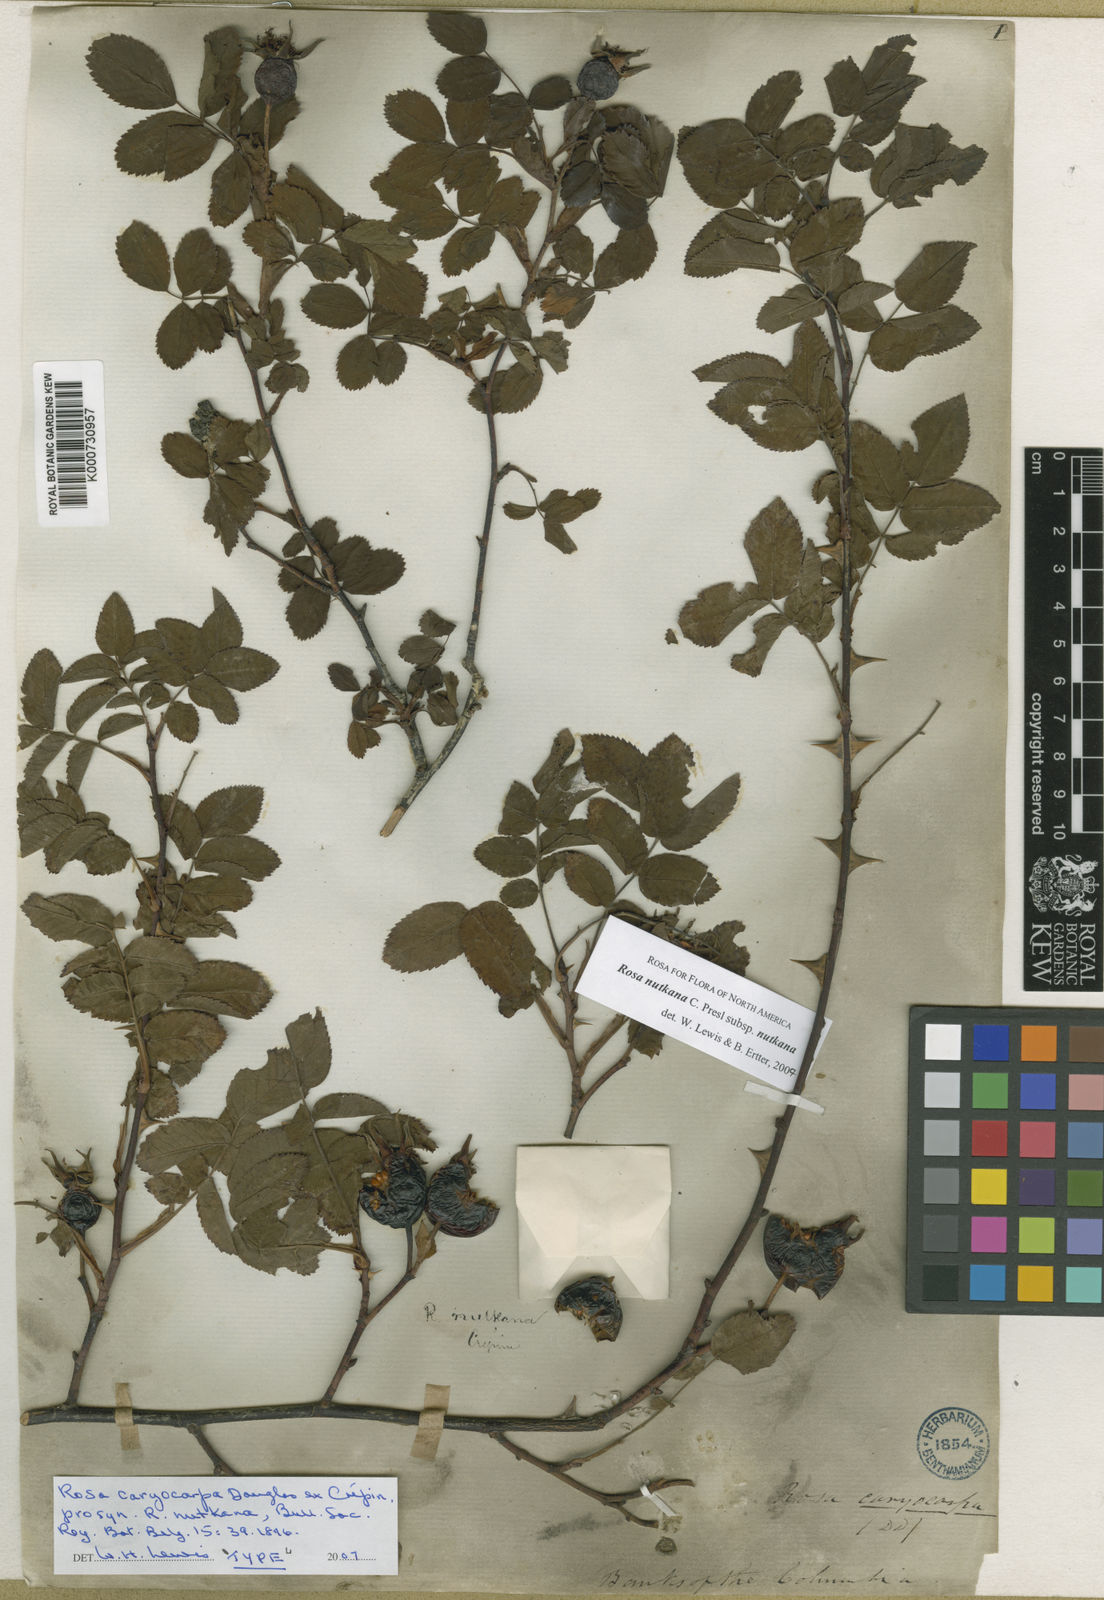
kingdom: Plantae
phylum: Tracheophyta
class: Magnoliopsida
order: Rosales
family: Rosaceae
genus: Rosa
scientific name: Rosa nutkana
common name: Nootka rose
